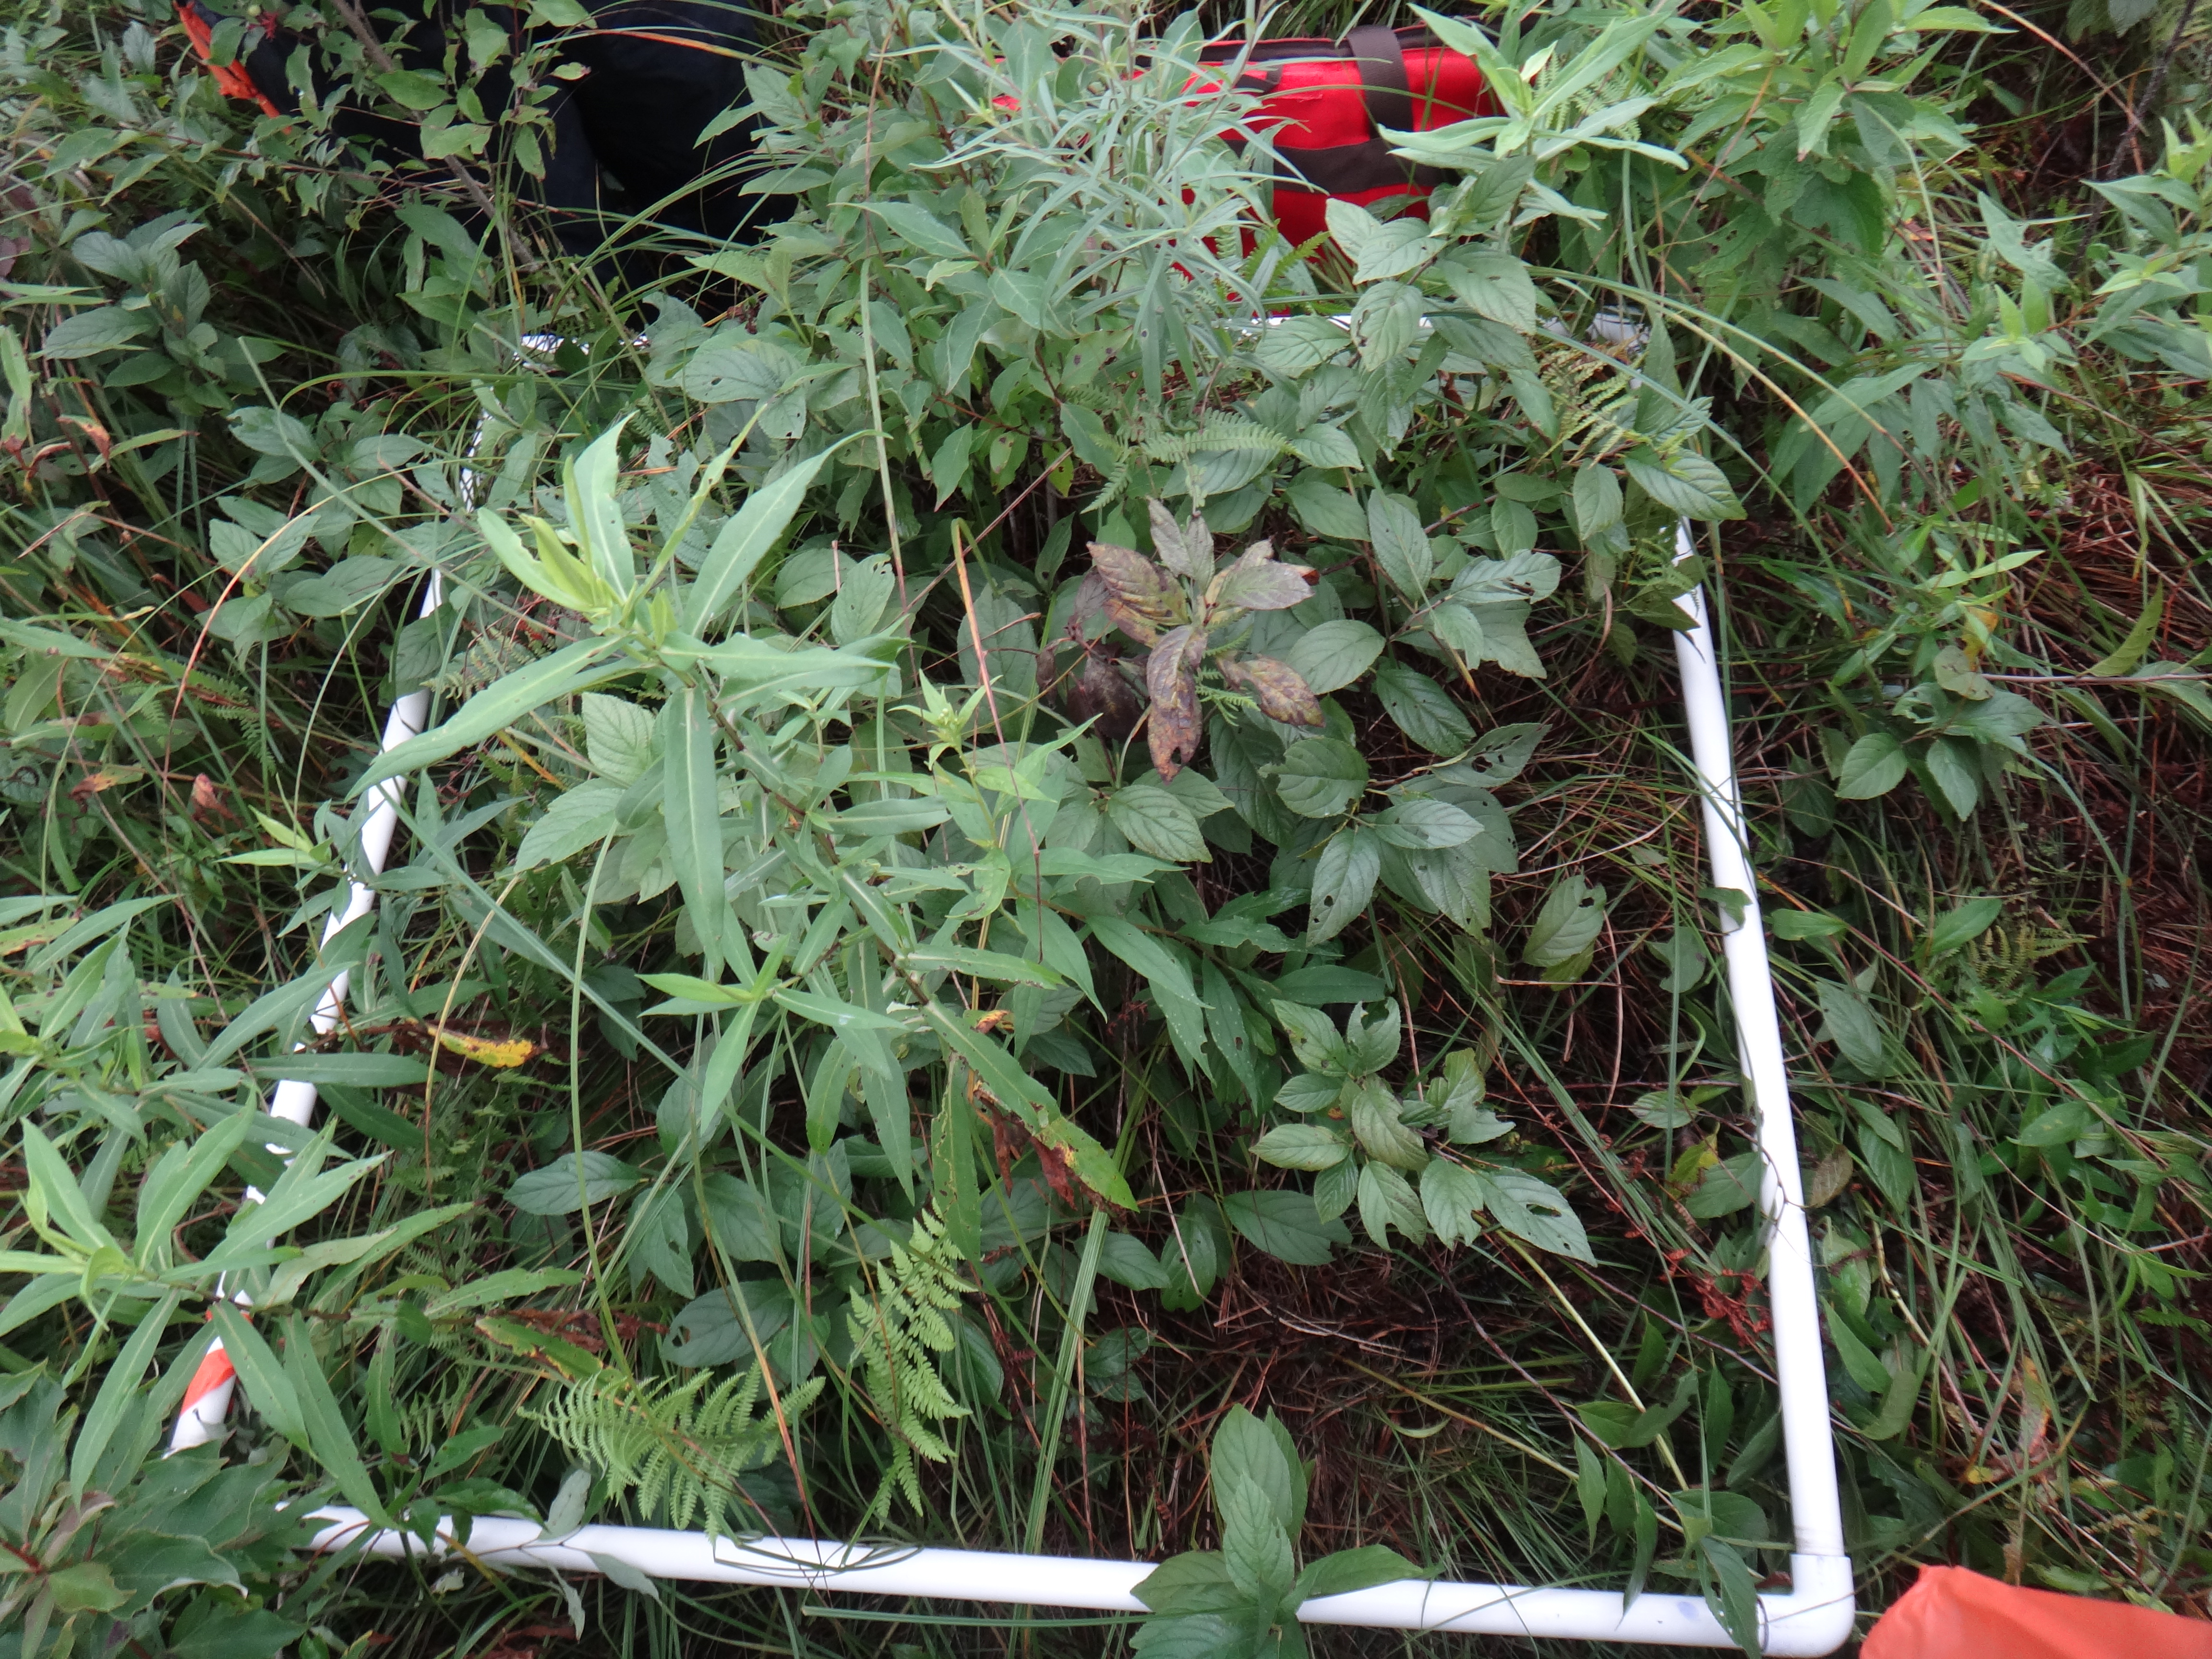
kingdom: Plantae
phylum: Tracheophyta
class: Polypodiopsida
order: Polypodiales
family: Thelypteridaceae
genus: Thelypteris
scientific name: Thelypteris palustris
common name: Marsh fern
